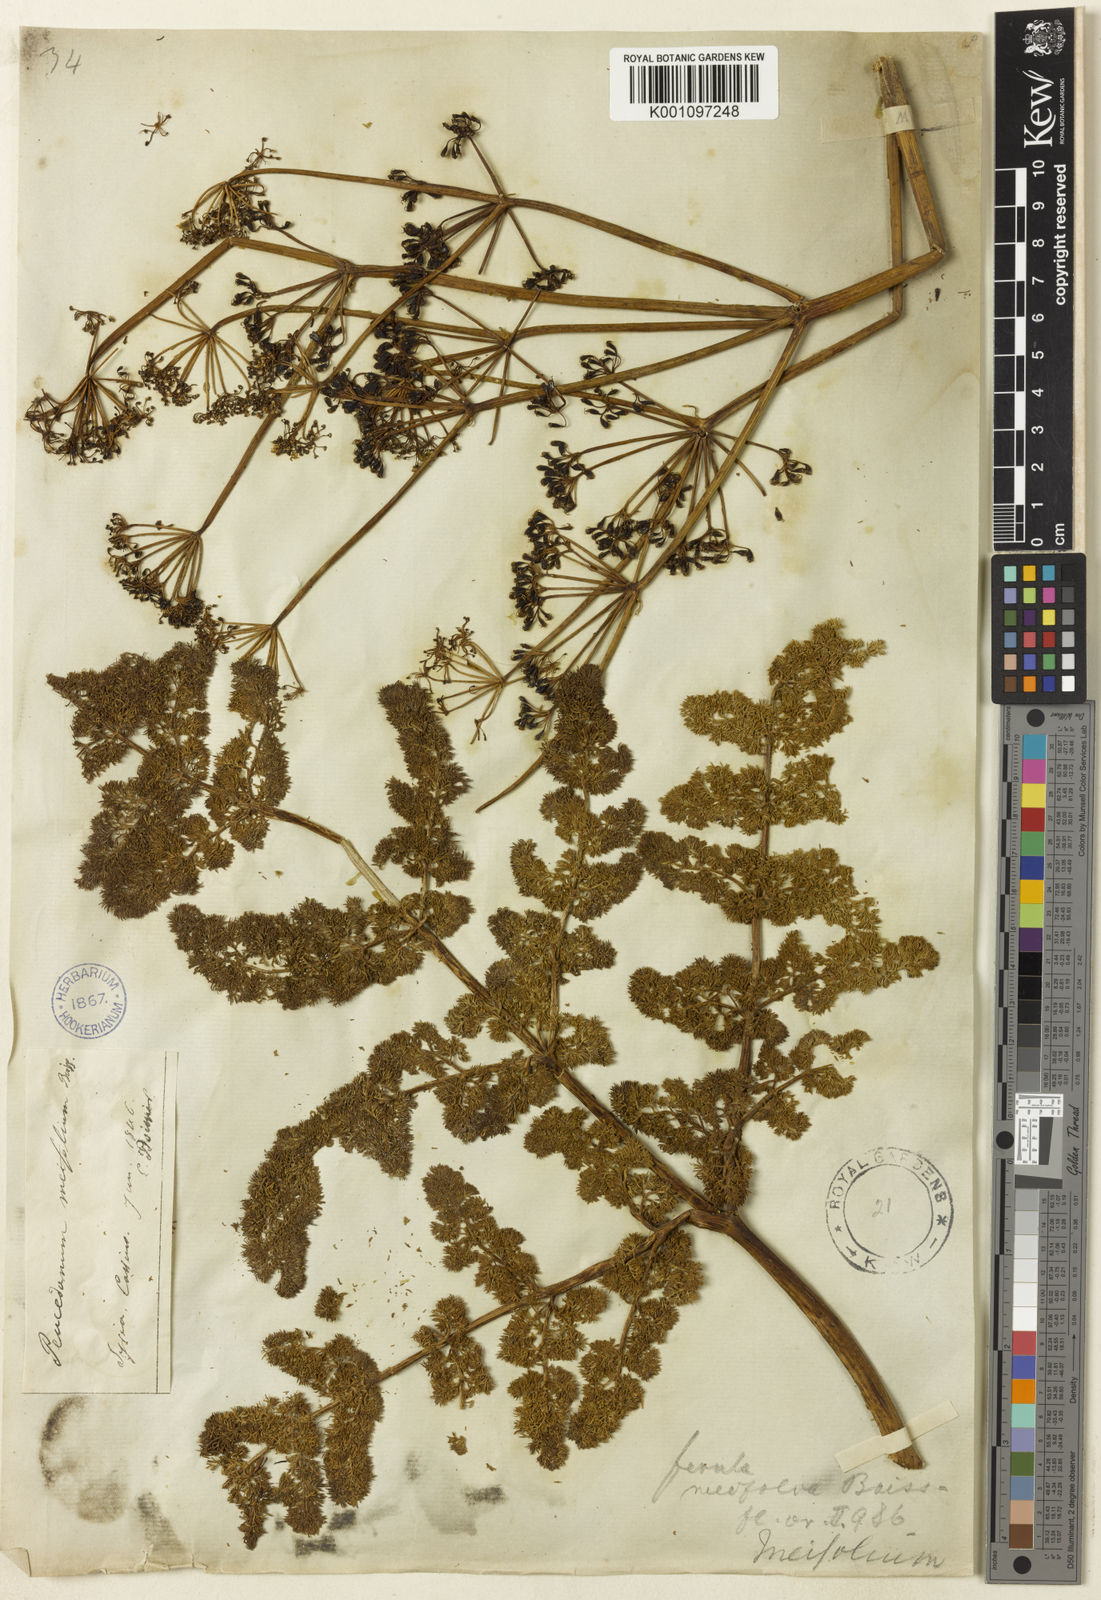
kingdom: Plantae
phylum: Tracheophyta
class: Magnoliopsida
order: Apiales
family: Apiaceae
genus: Ferula
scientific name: Ferula elaeochytris
